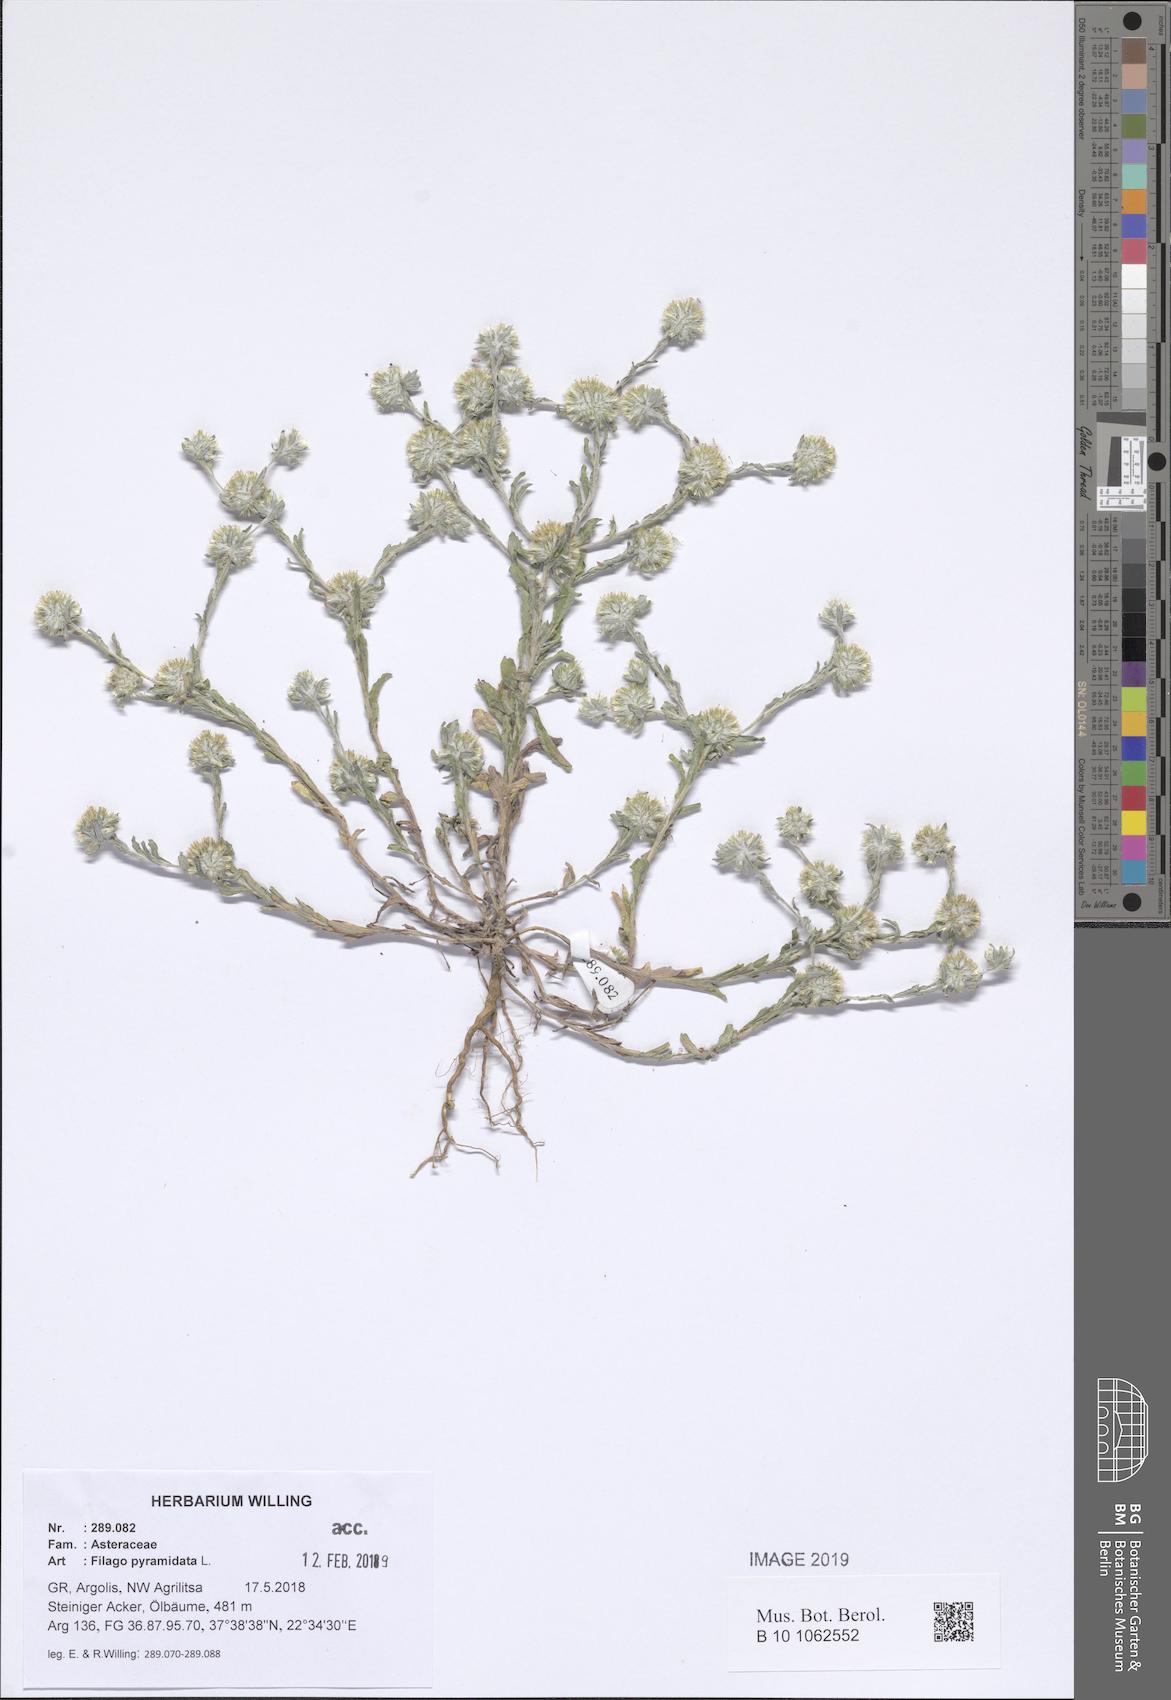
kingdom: Plantae
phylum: Tracheophyta
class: Magnoliopsida
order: Asterales
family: Asteraceae
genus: Filago
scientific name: Filago pyramidata
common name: Broad-leaved cudweed
